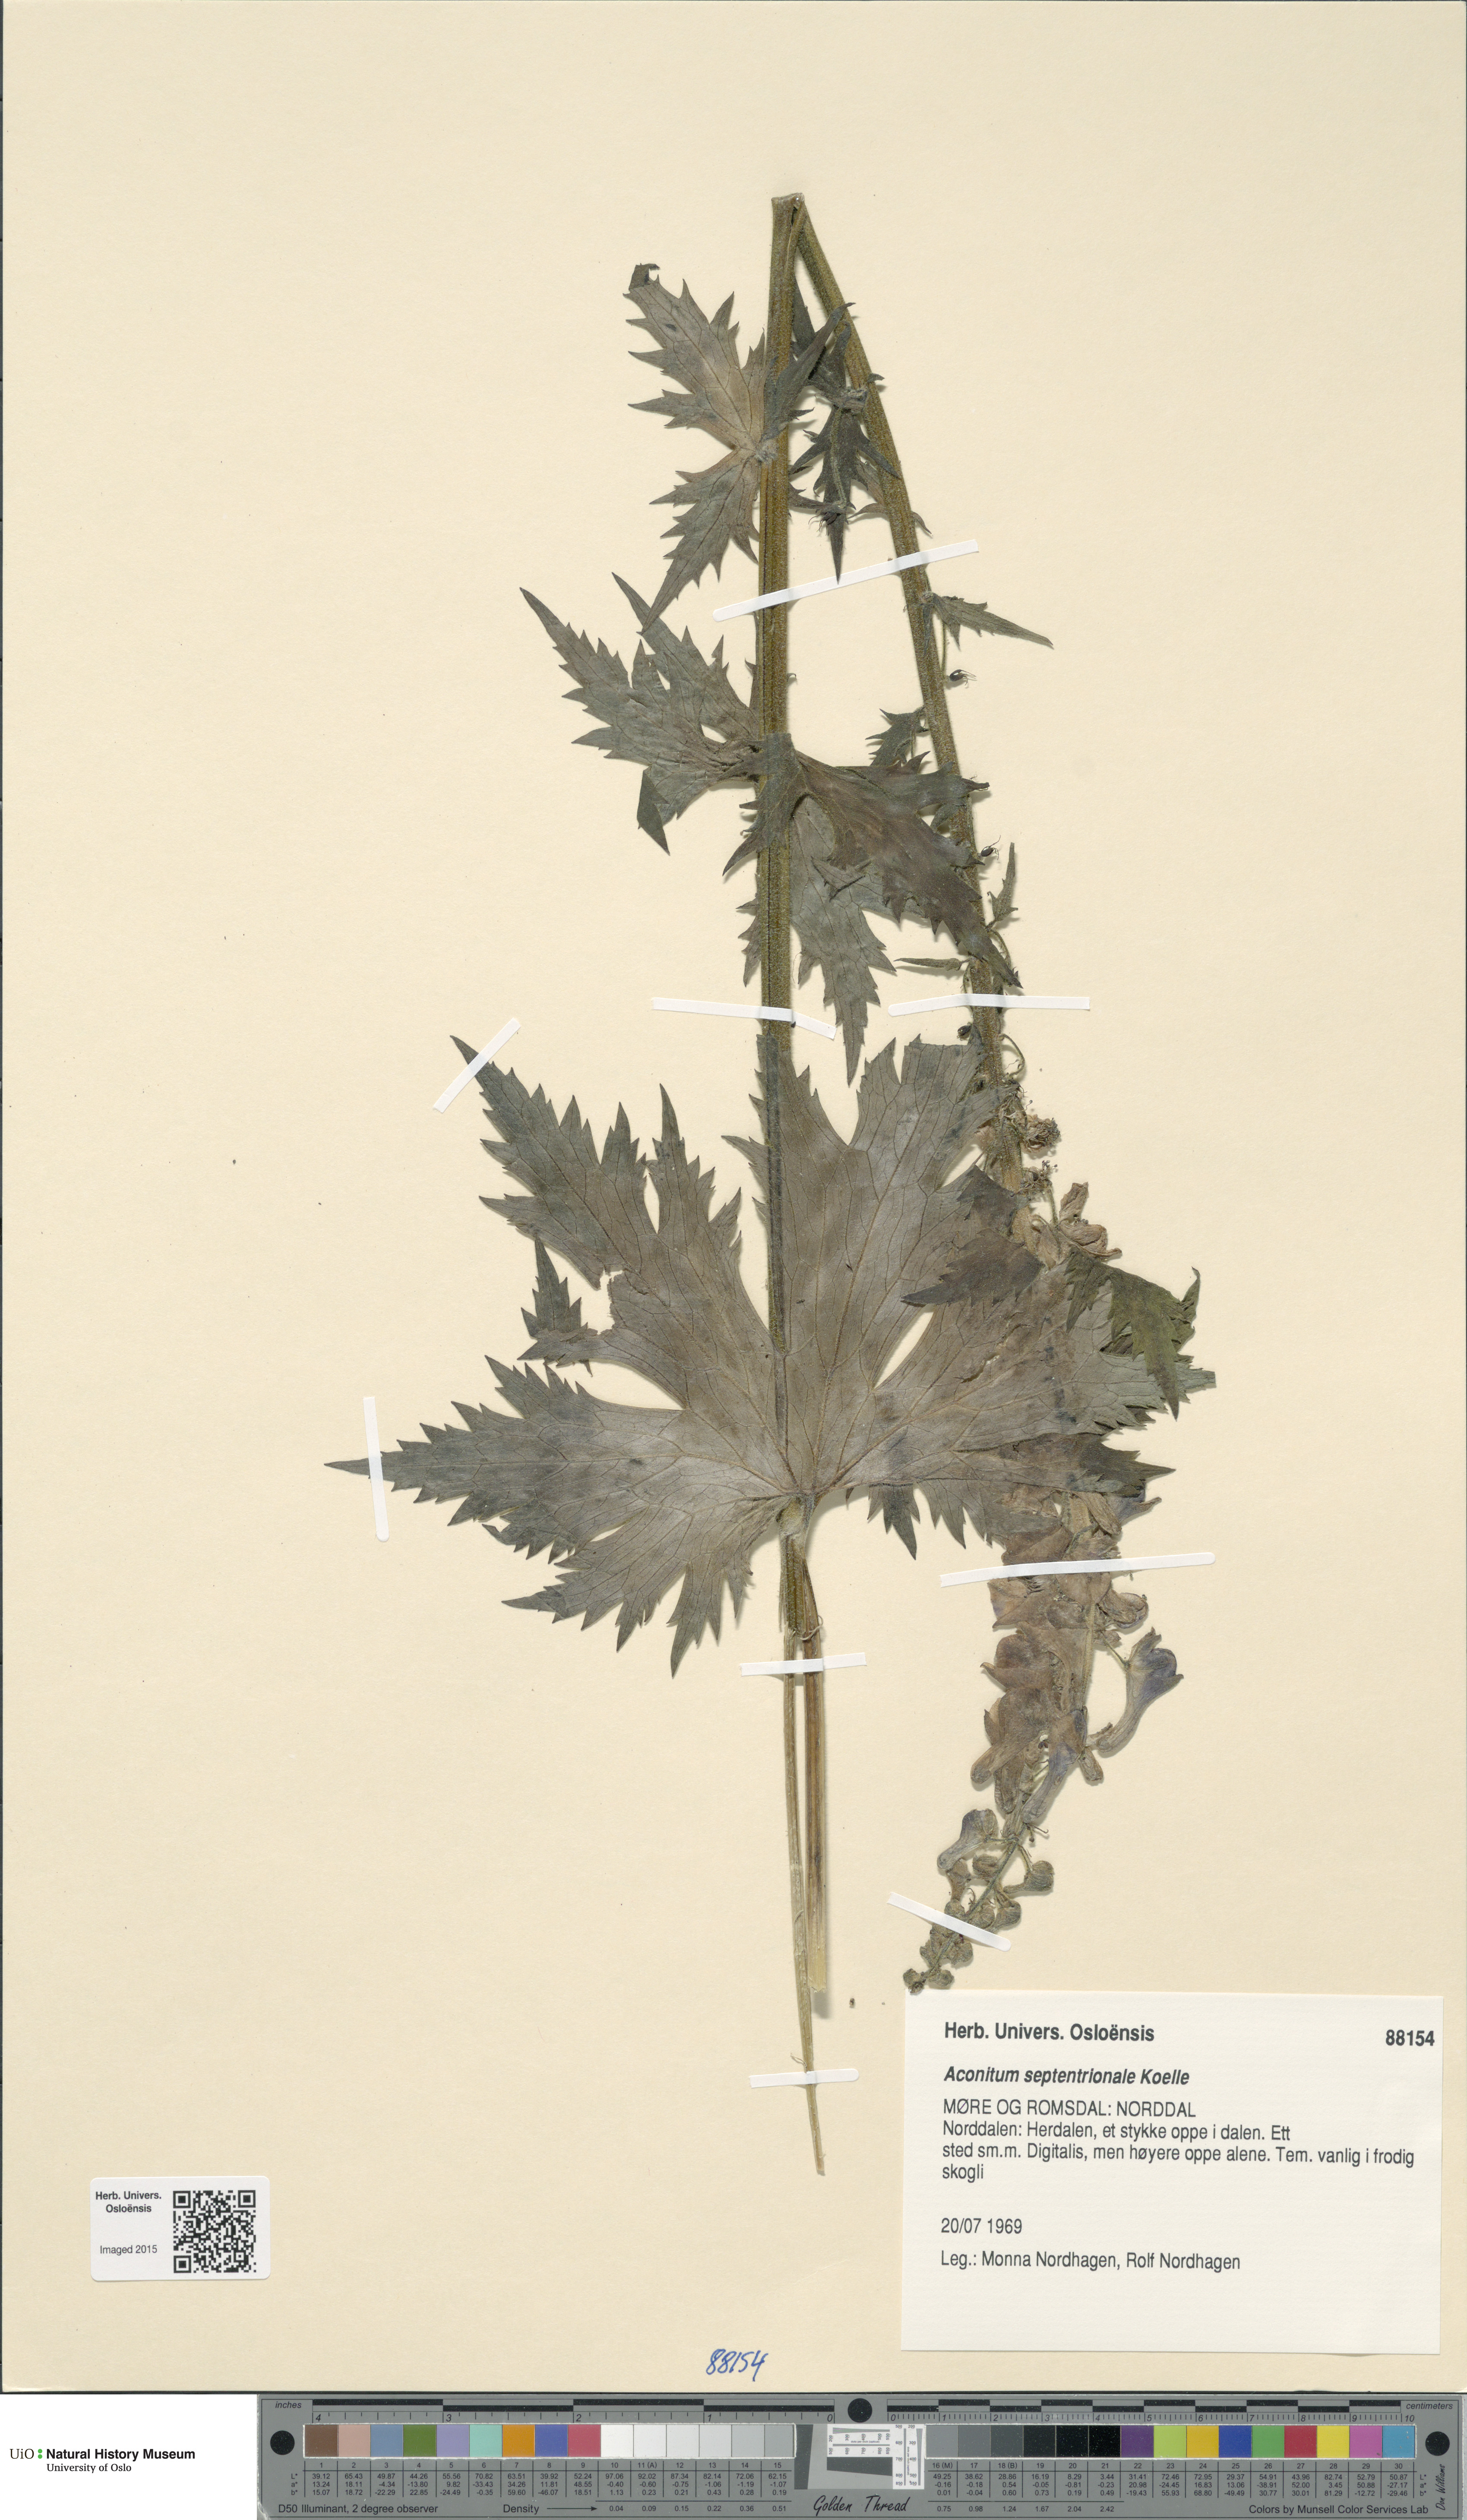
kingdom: Plantae
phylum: Tracheophyta
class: Magnoliopsida
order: Ranunculales
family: Ranunculaceae
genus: Aconitum
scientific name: Aconitum septentrionale
